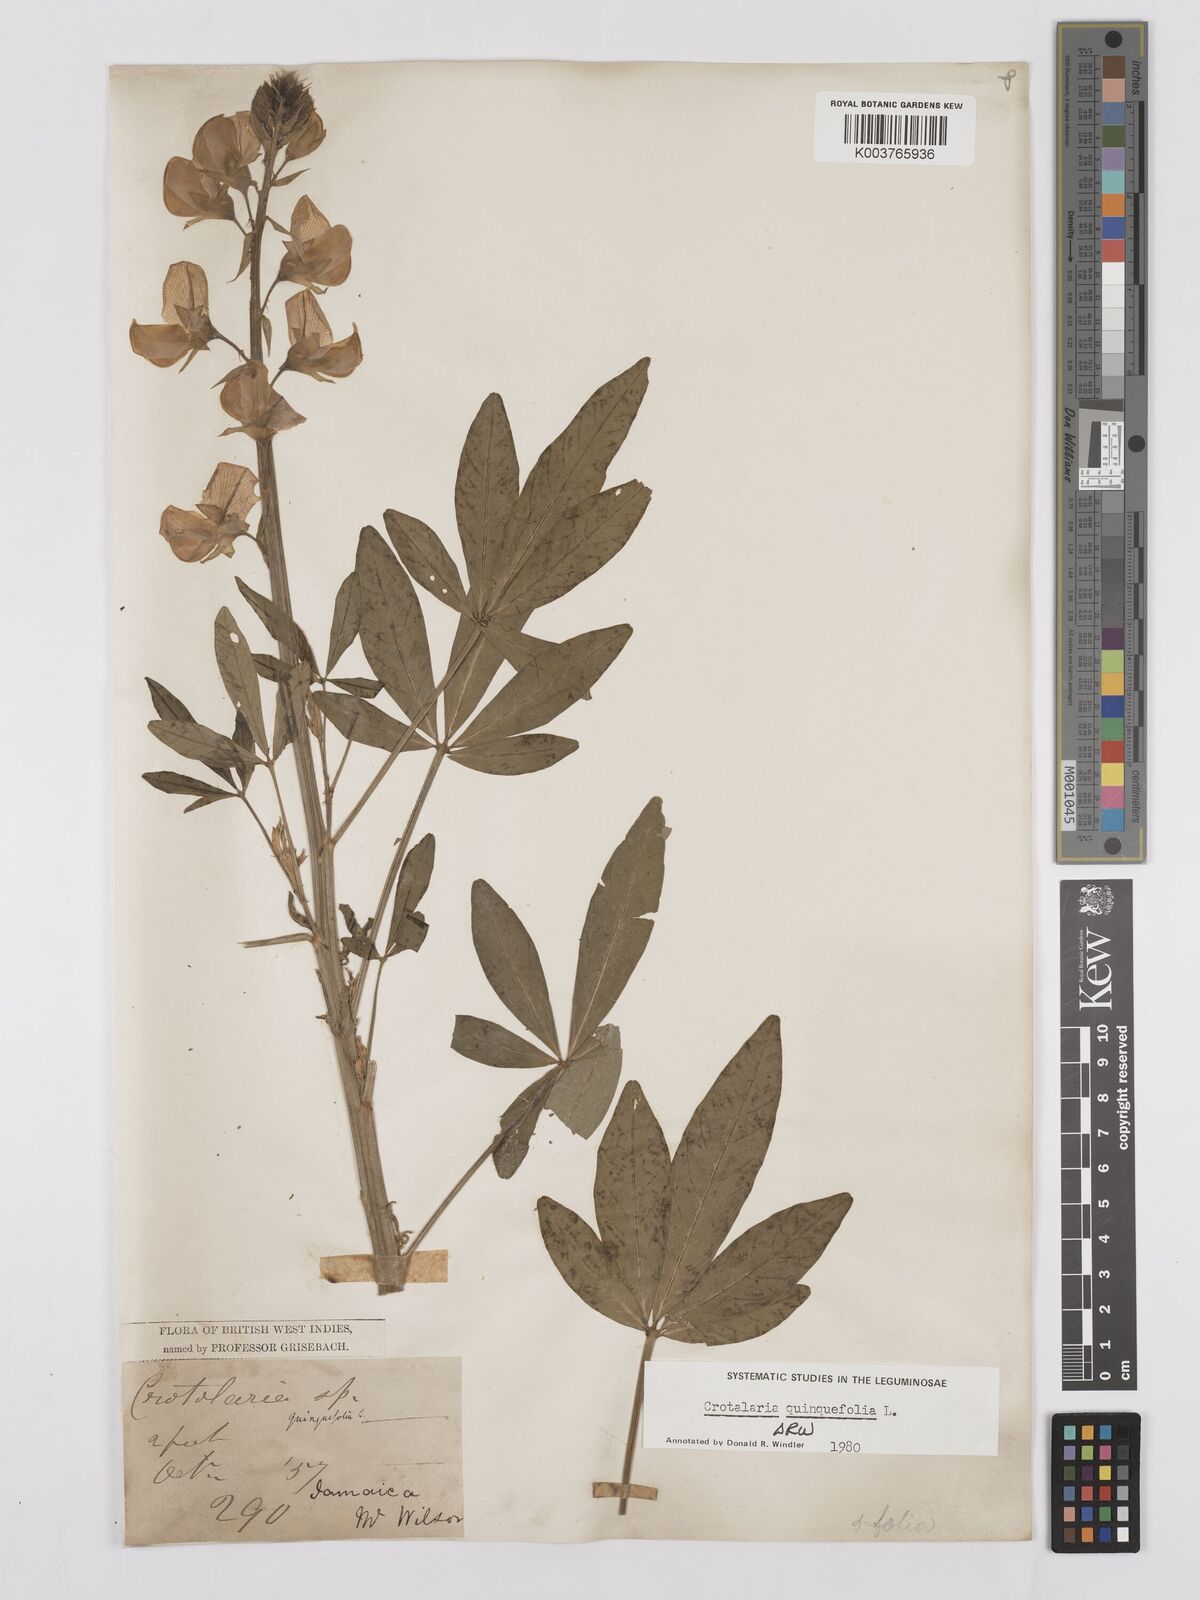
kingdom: Plantae
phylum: Tracheophyta
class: Magnoliopsida
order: Fabales
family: Fabaceae
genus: Crotalaria
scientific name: Crotalaria quinquefolia
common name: Five-leaf crotalaria
